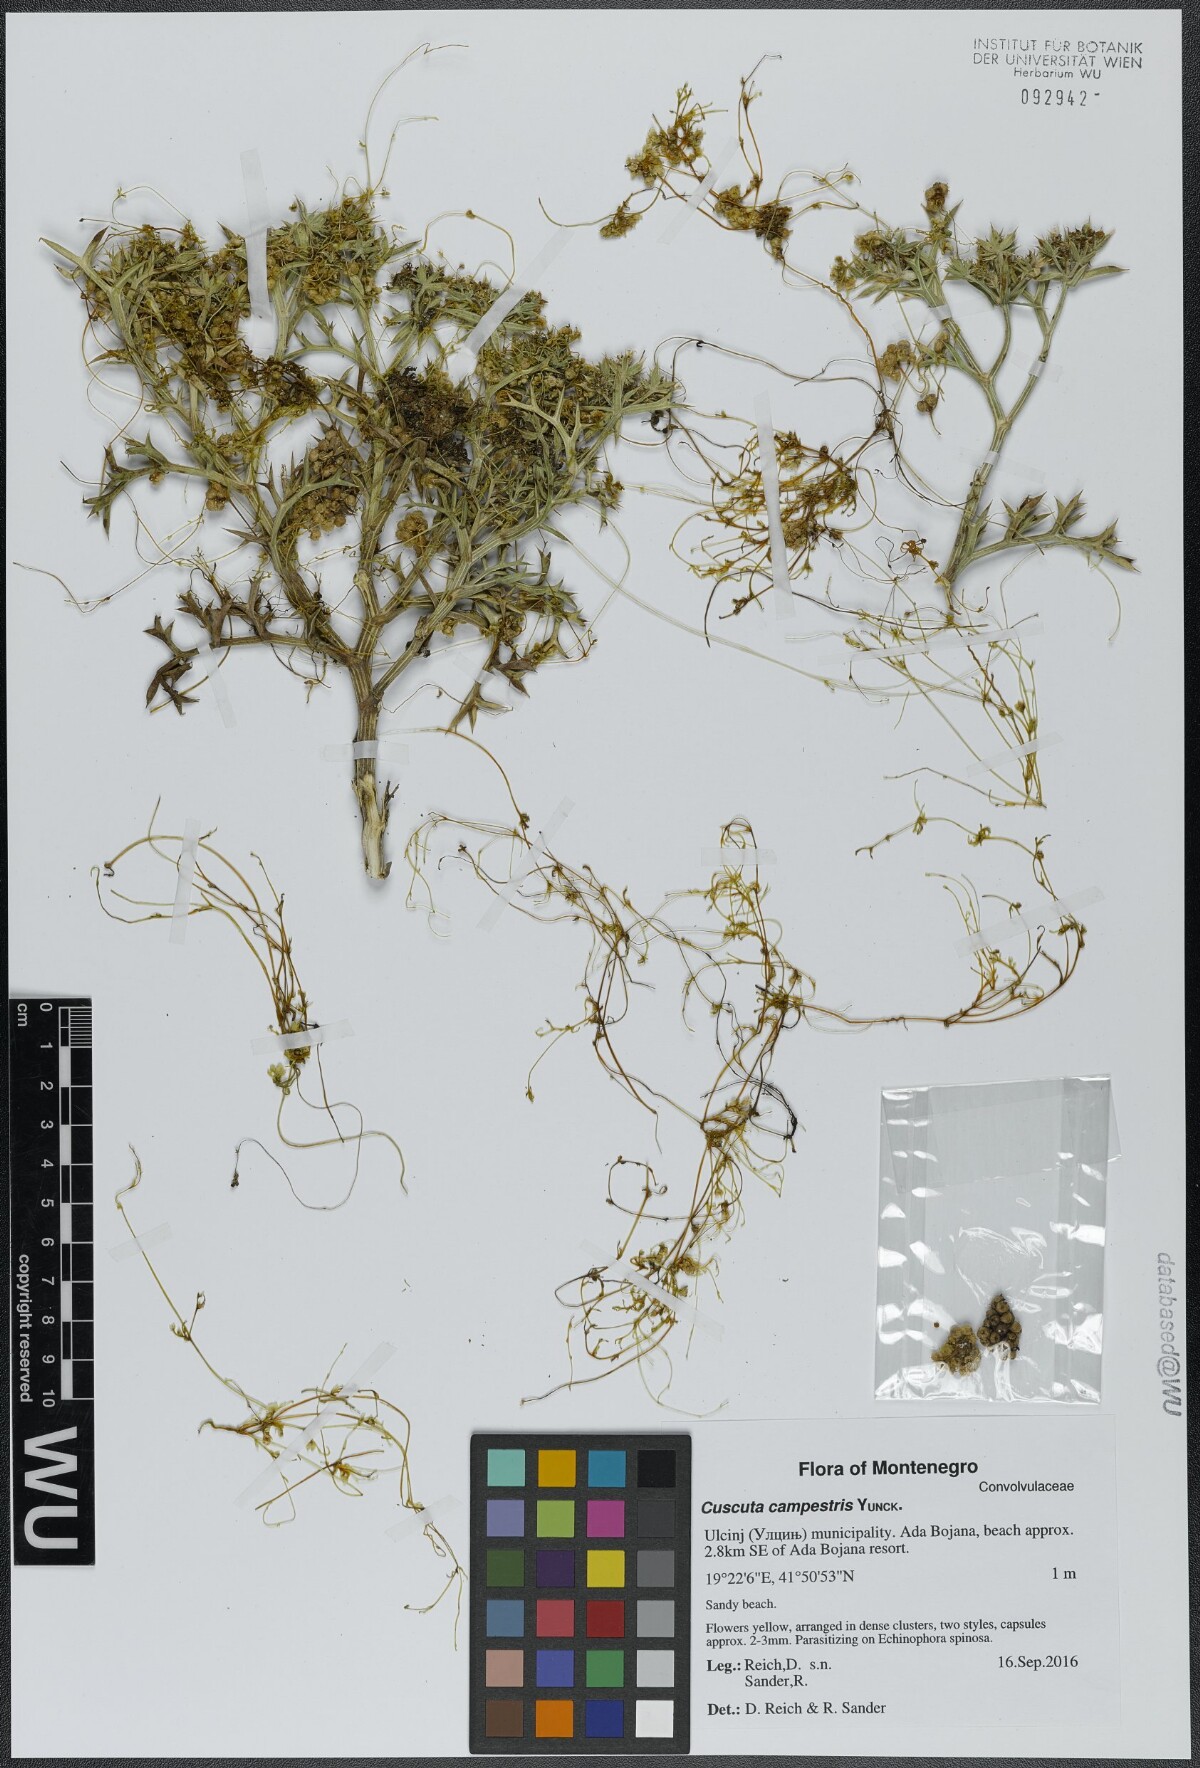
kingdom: Plantae
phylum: Tracheophyta
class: Magnoliopsida
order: Solanales
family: Convolvulaceae
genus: Cuscuta
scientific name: Cuscuta campestris
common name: Yellow dodder
